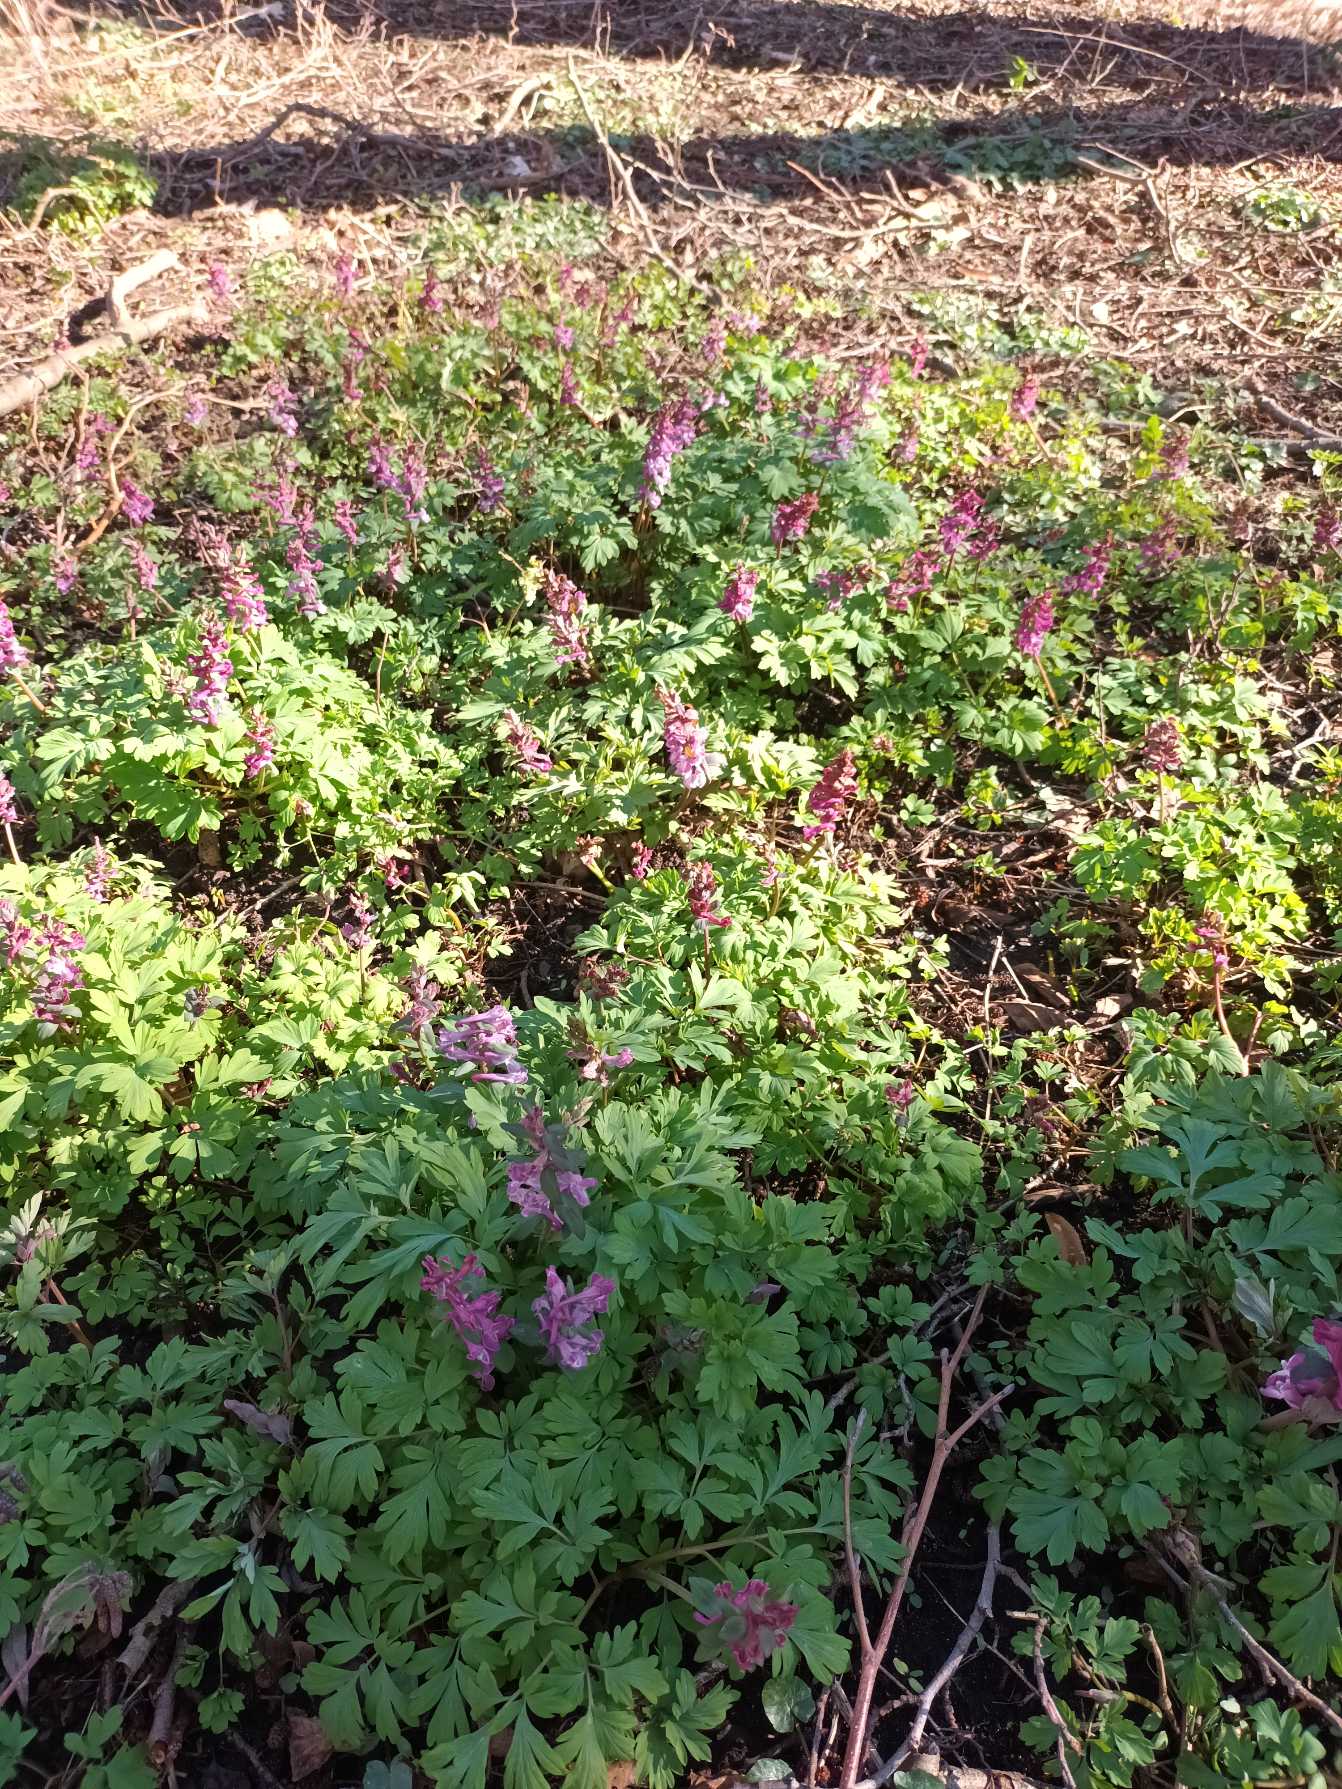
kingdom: Plantae
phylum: Tracheophyta
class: Magnoliopsida
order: Ranunculales
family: Papaveraceae
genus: Corydalis
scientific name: Corydalis cava
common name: Hulrodet lærkespore
